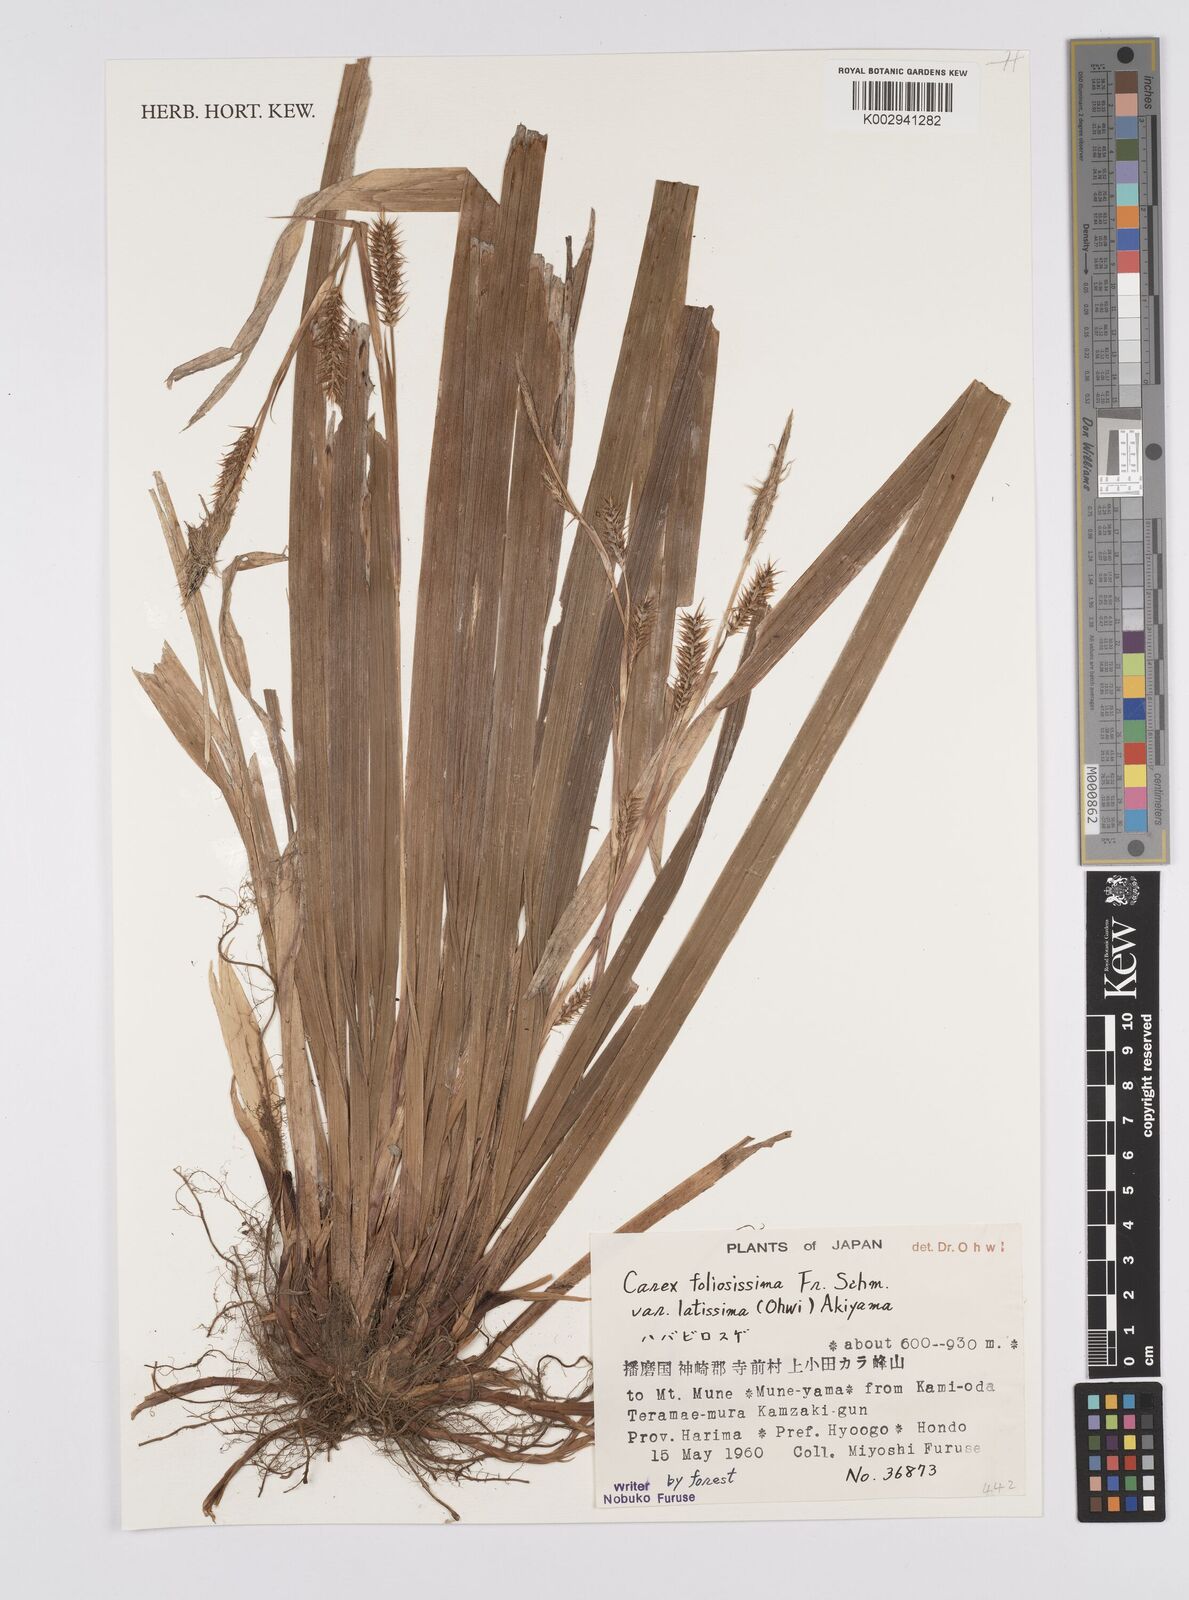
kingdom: Plantae
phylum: Tracheophyta
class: Liliopsida
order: Poales
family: Cyperaceae
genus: Carex
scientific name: Carex foliosissima
